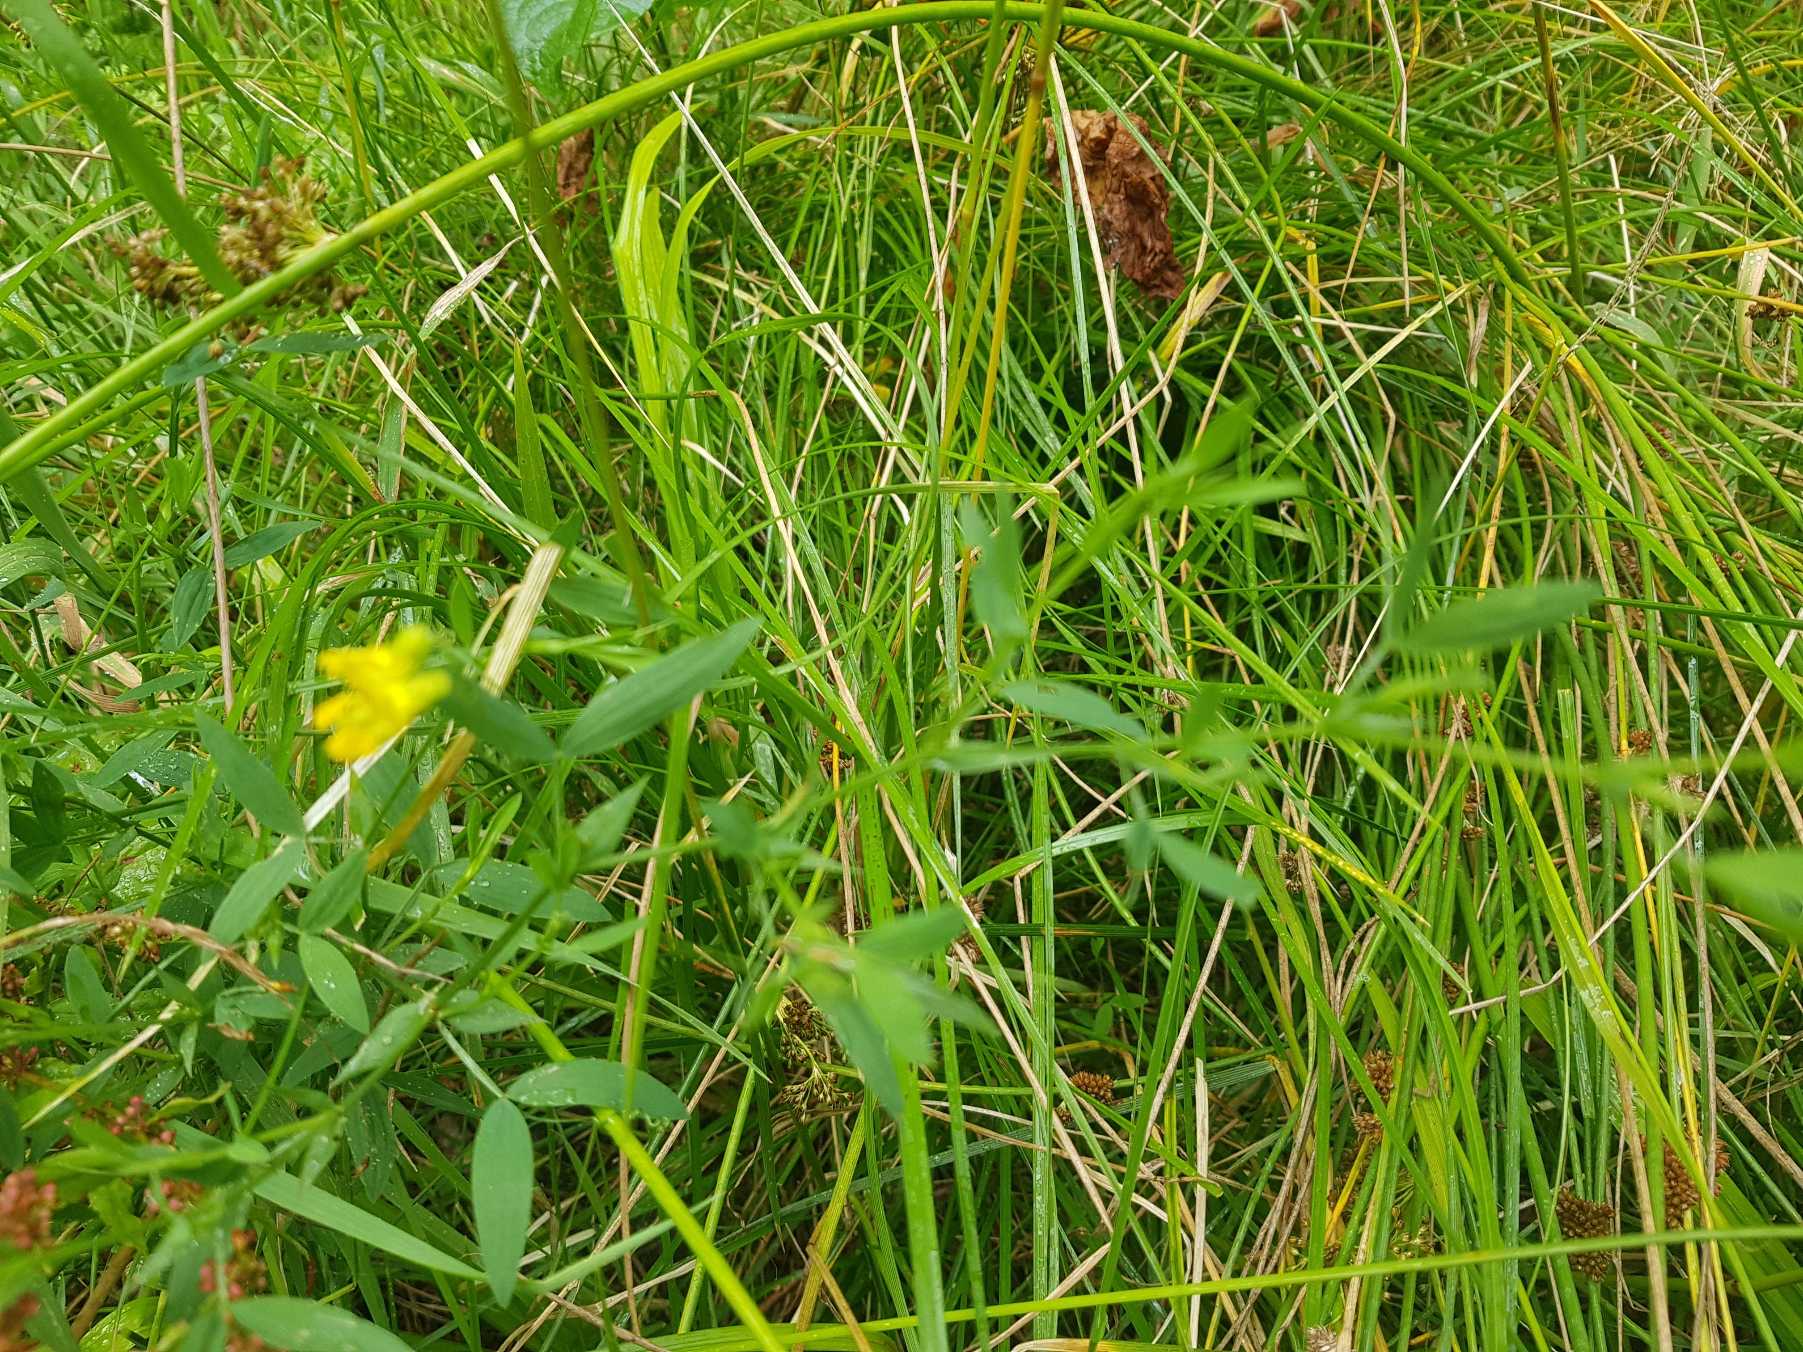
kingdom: Plantae
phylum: Tracheophyta
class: Magnoliopsida
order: Fabales
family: Fabaceae
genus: Lathyrus
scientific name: Lathyrus pratensis
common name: Gul fladbælg
